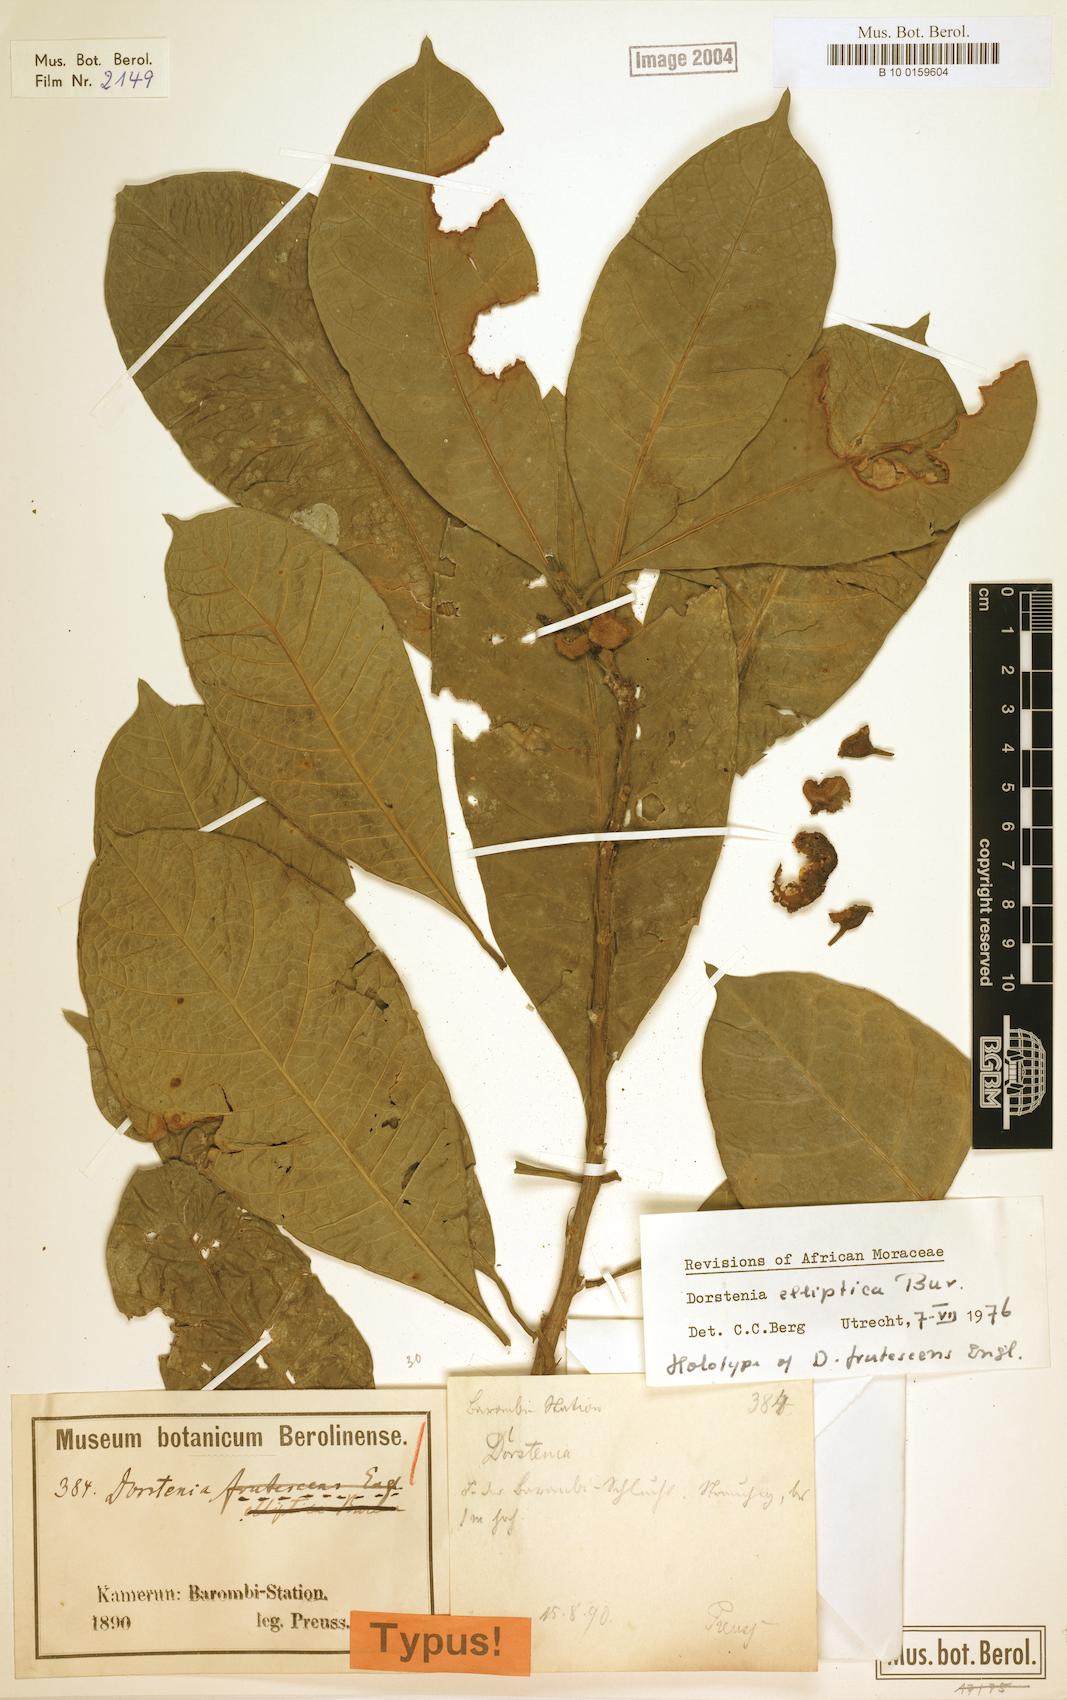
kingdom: Plantae
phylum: Tracheophyta
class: Magnoliopsida
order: Rosales
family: Moraceae
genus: Dorstenia
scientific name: Dorstenia elliptica
